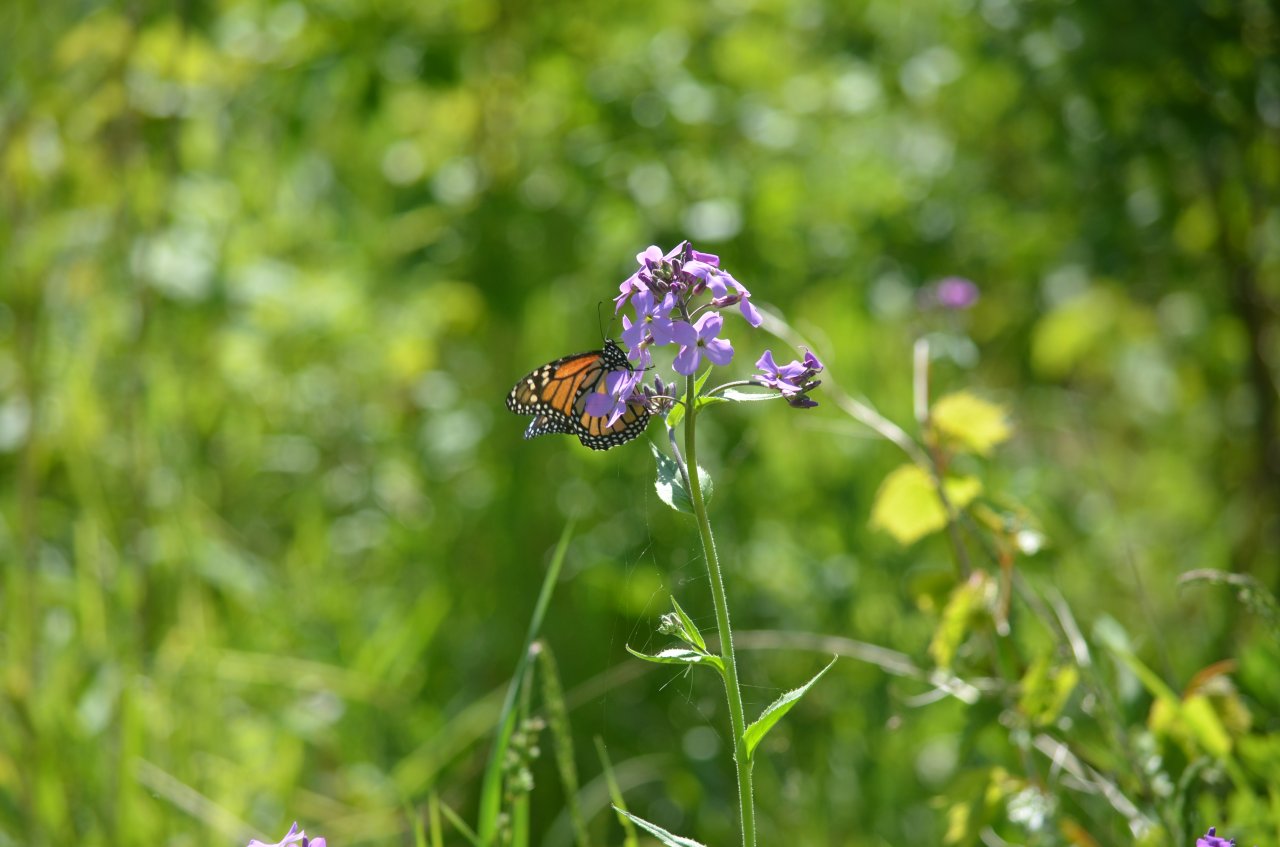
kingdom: Animalia
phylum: Arthropoda
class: Insecta
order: Lepidoptera
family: Nymphalidae
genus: Danaus
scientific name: Danaus plexippus
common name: Monarch
